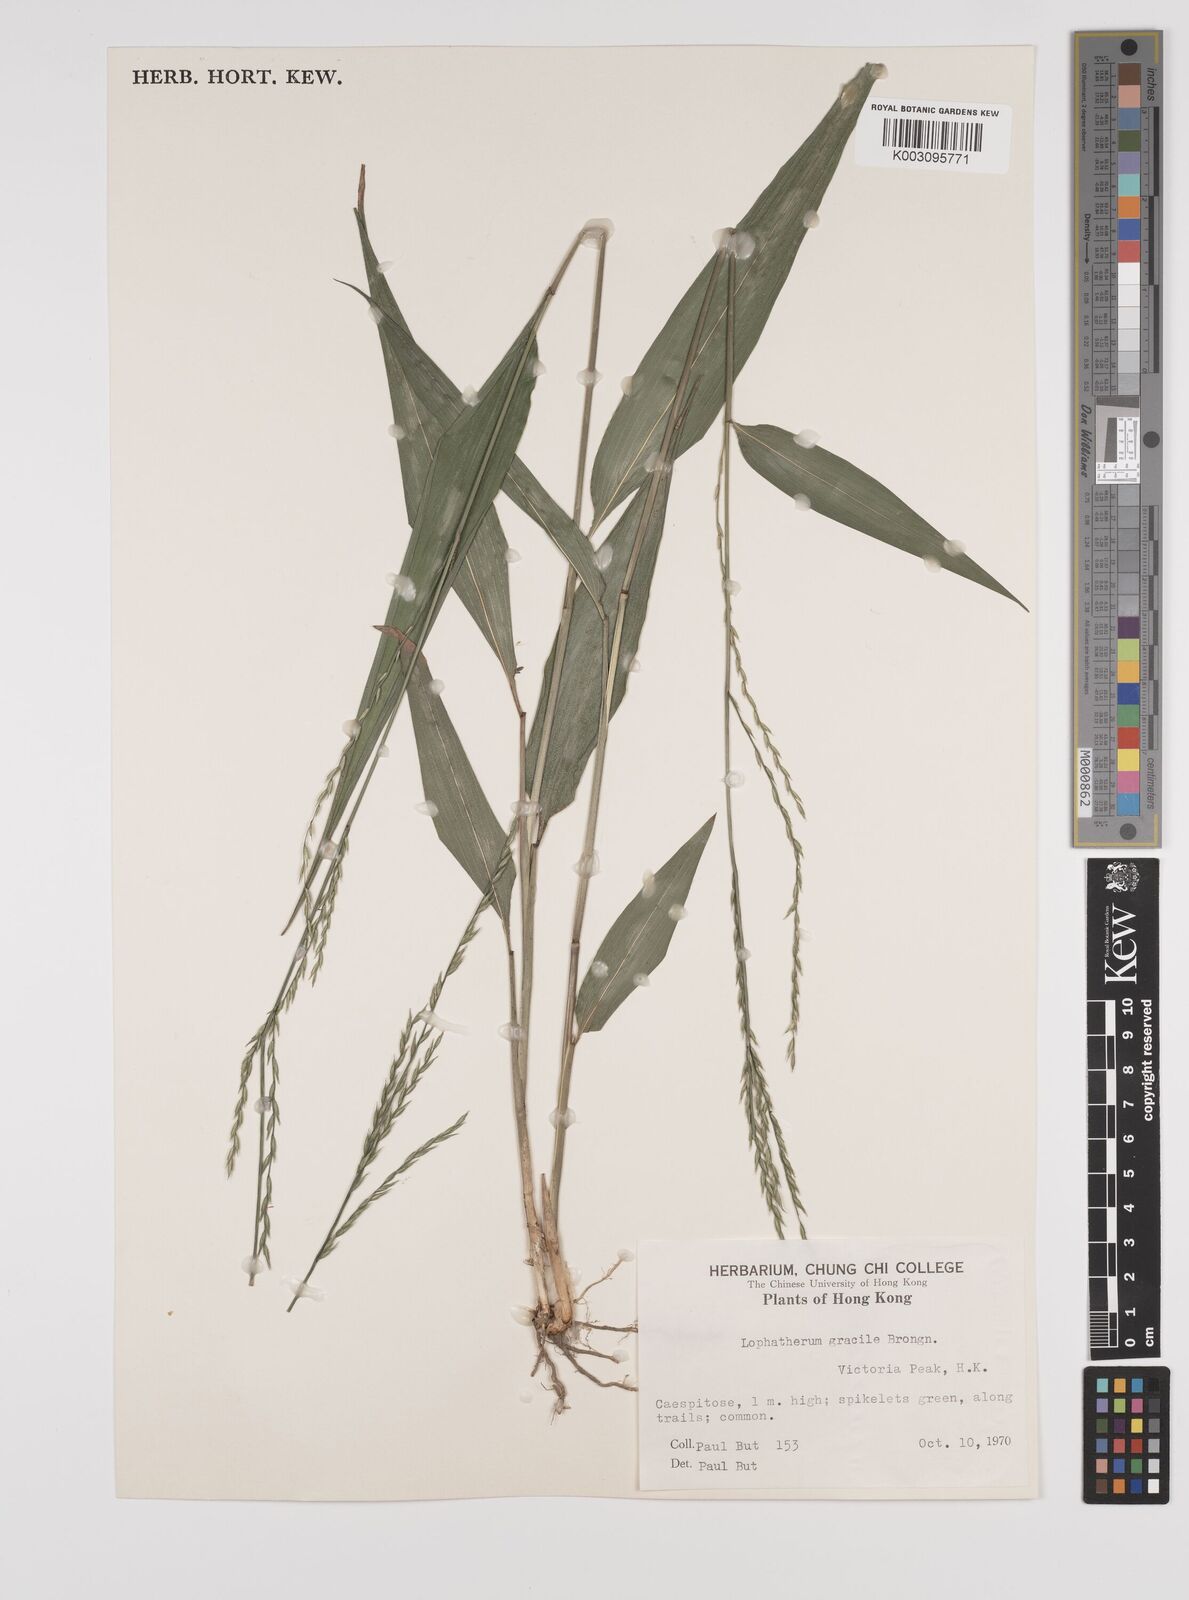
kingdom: Plantae
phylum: Tracheophyta
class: Liliopsida
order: Poales
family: Poaceae
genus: Lophatherum
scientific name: Lophatherum gracile
